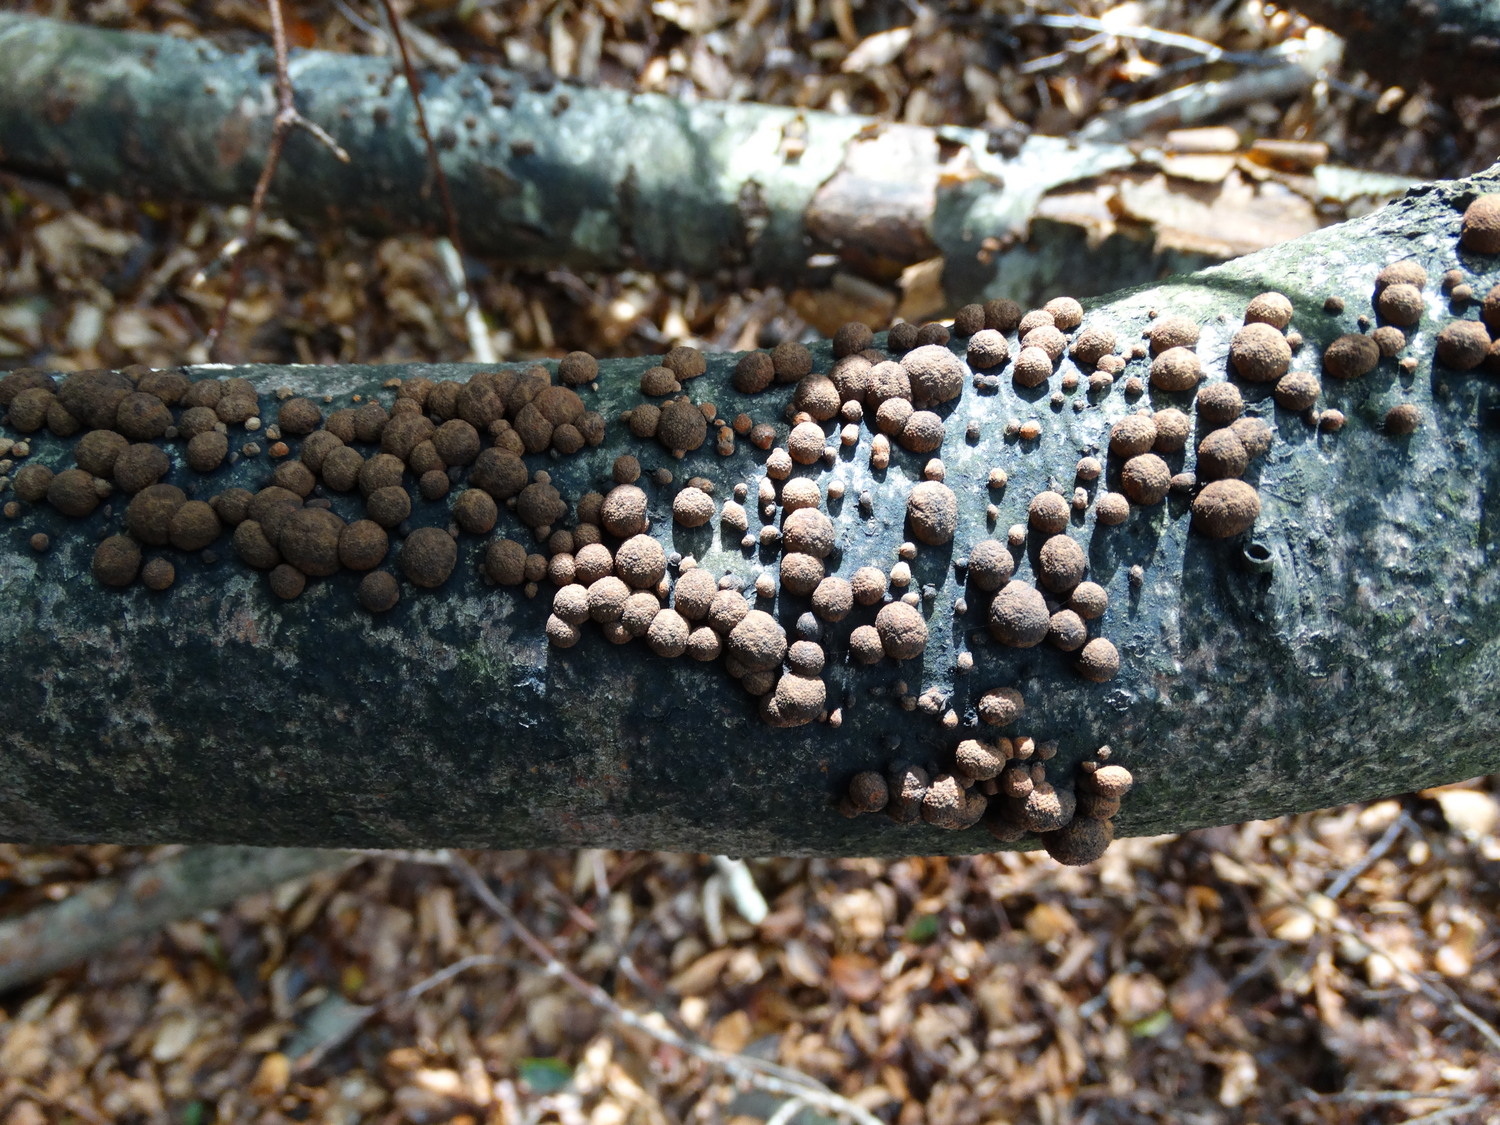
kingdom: Fungi
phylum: Ascomycota
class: Sordariomycetes
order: Xylariales
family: Hypoxylaceae
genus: Hypoxylon
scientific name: Hypoxylon fragiforme
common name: kuljordbær
